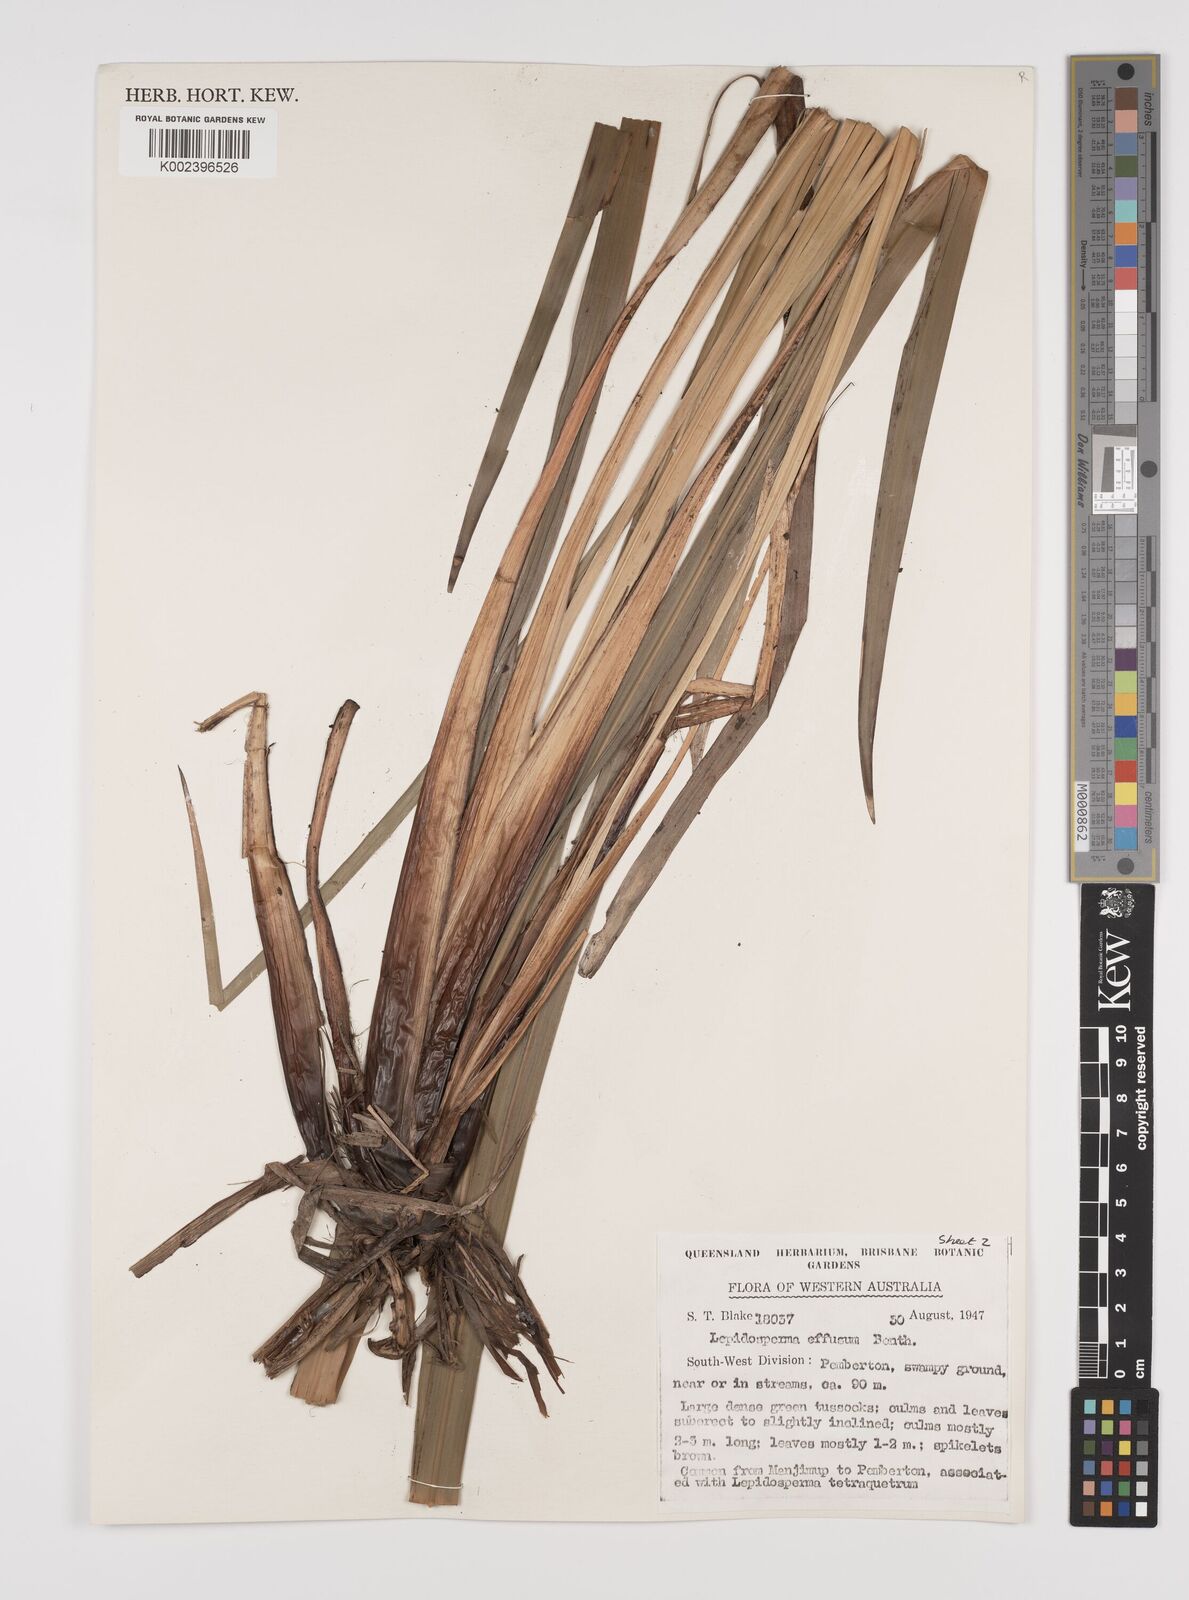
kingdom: Plantae
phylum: Tracheophyta
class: Liliopsida
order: Poales
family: Cyperaceae
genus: Lepidosperma
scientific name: Lepidosperma effusum
